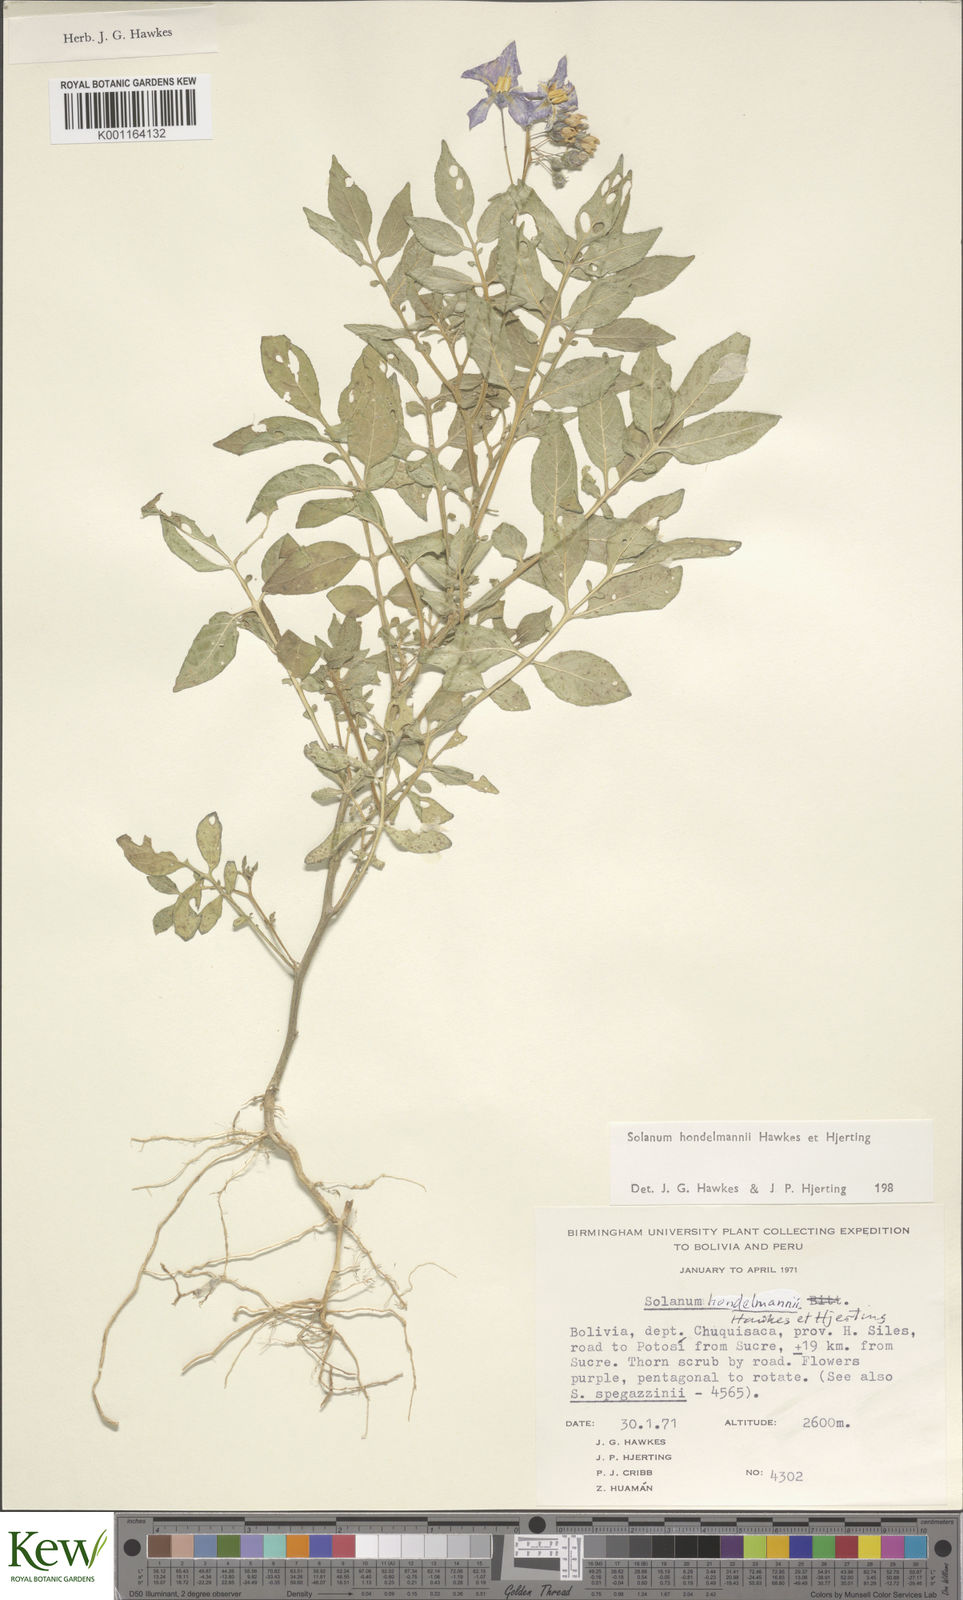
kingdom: Plantae
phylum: Tracheophyta
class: Magnoliopsida
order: Solanales
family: Solanaceae
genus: Solanum
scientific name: Solanum brevicaule
